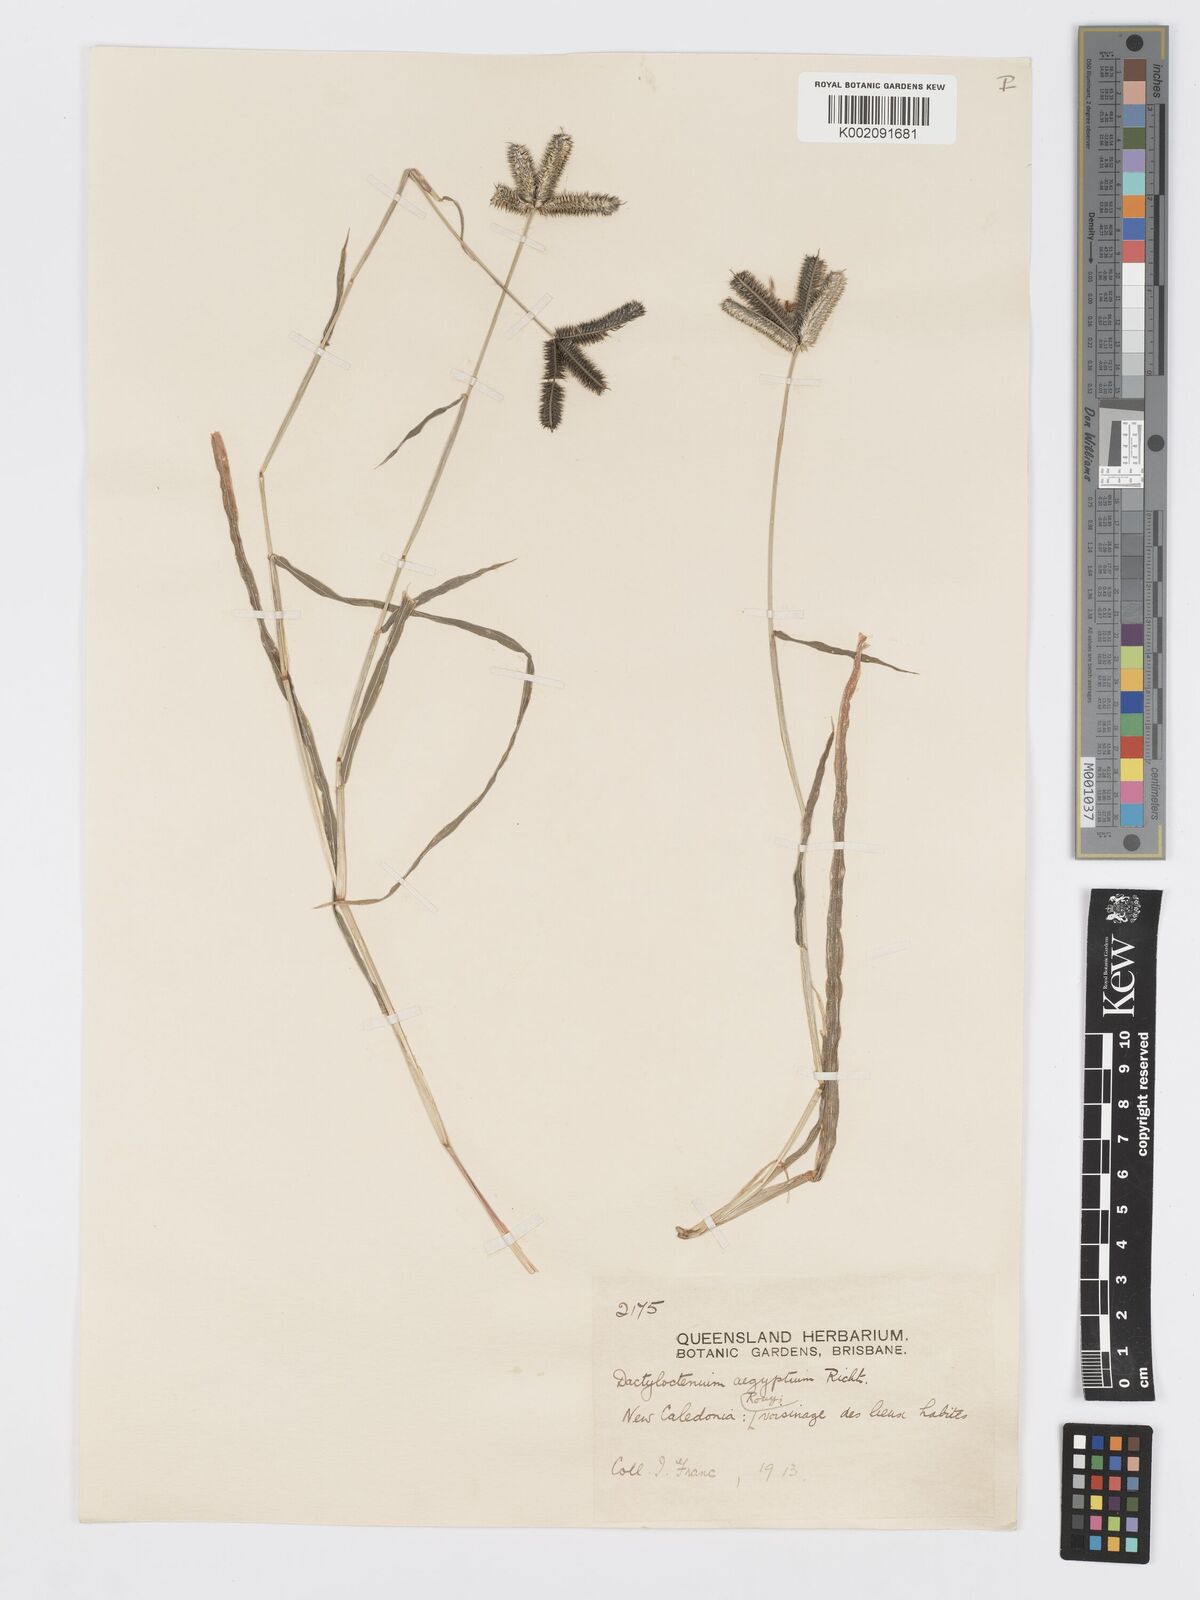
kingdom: Plantae
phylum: Tracheophyta
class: Liliopsida
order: Poales
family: Poaceae
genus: Dactyloctenium
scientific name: Dactyloctenium aegyptium
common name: Egyptian grass
